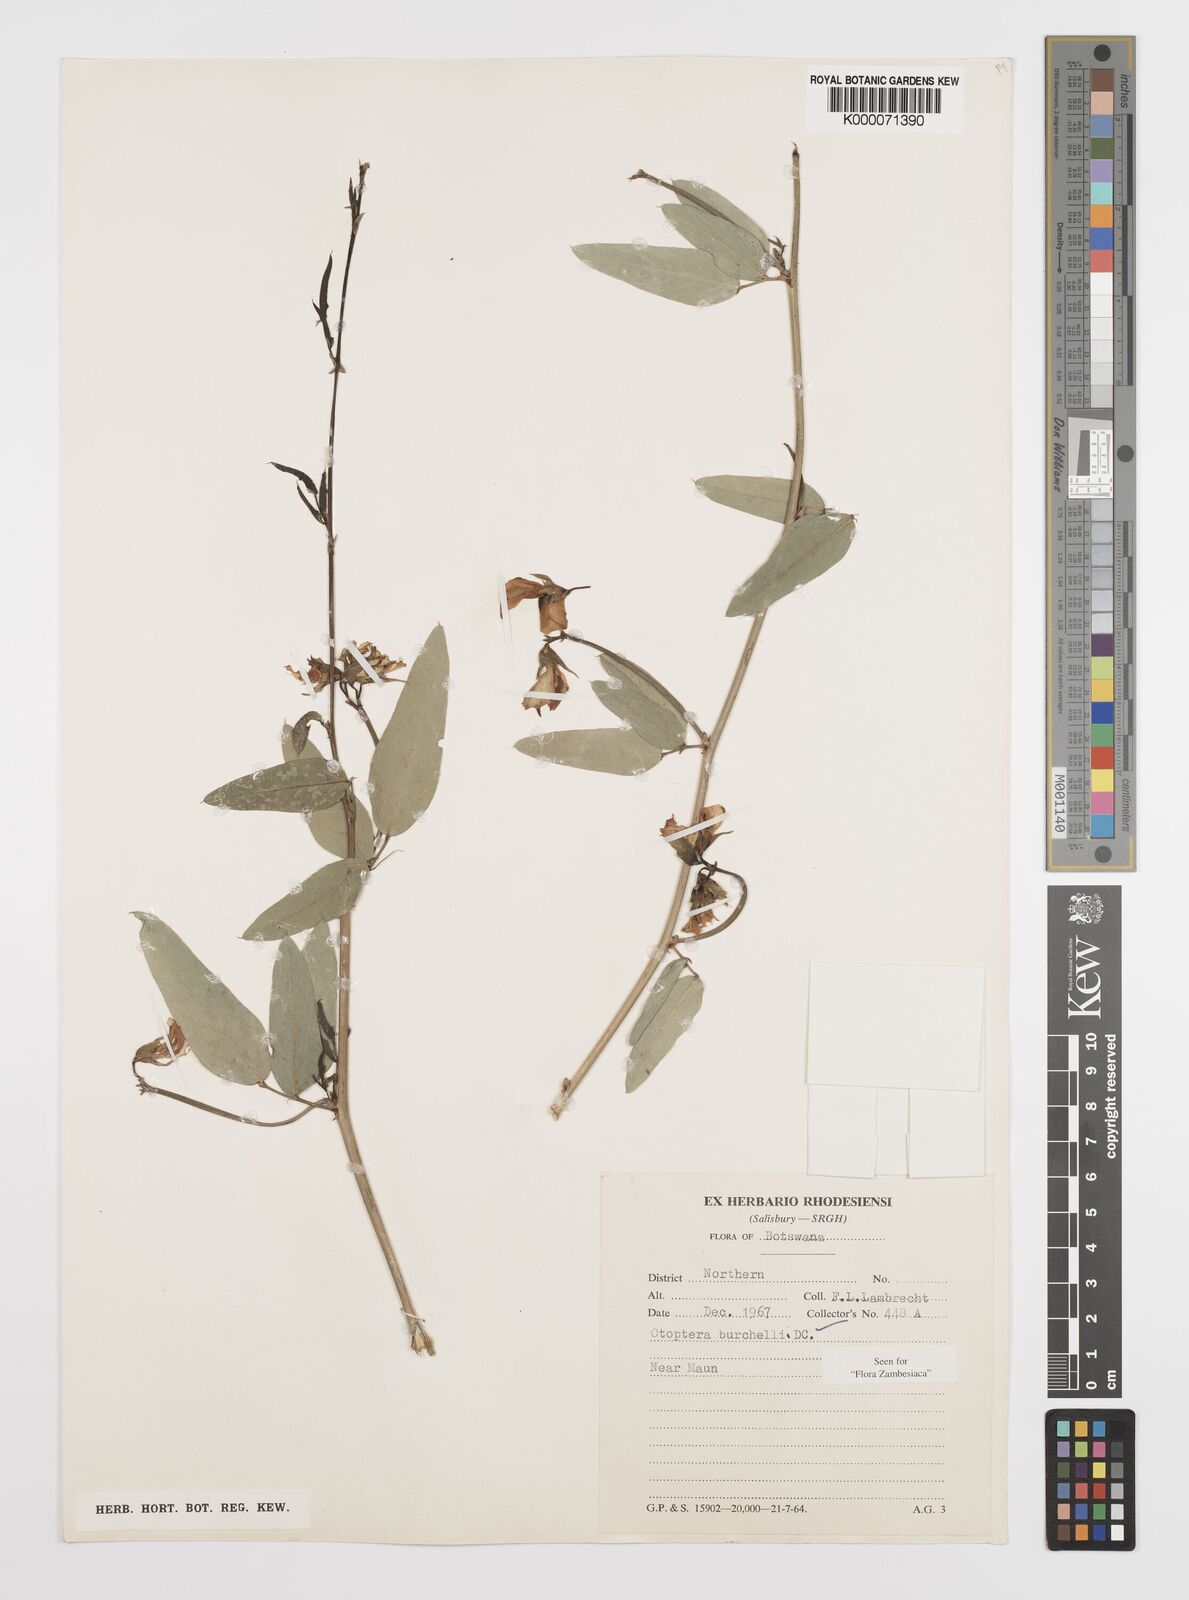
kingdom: Plantae
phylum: Tracheophyta
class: Magnoliopsida
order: Fabales
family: Fabaceae
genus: Otoptera
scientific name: Otoptera burchellii
